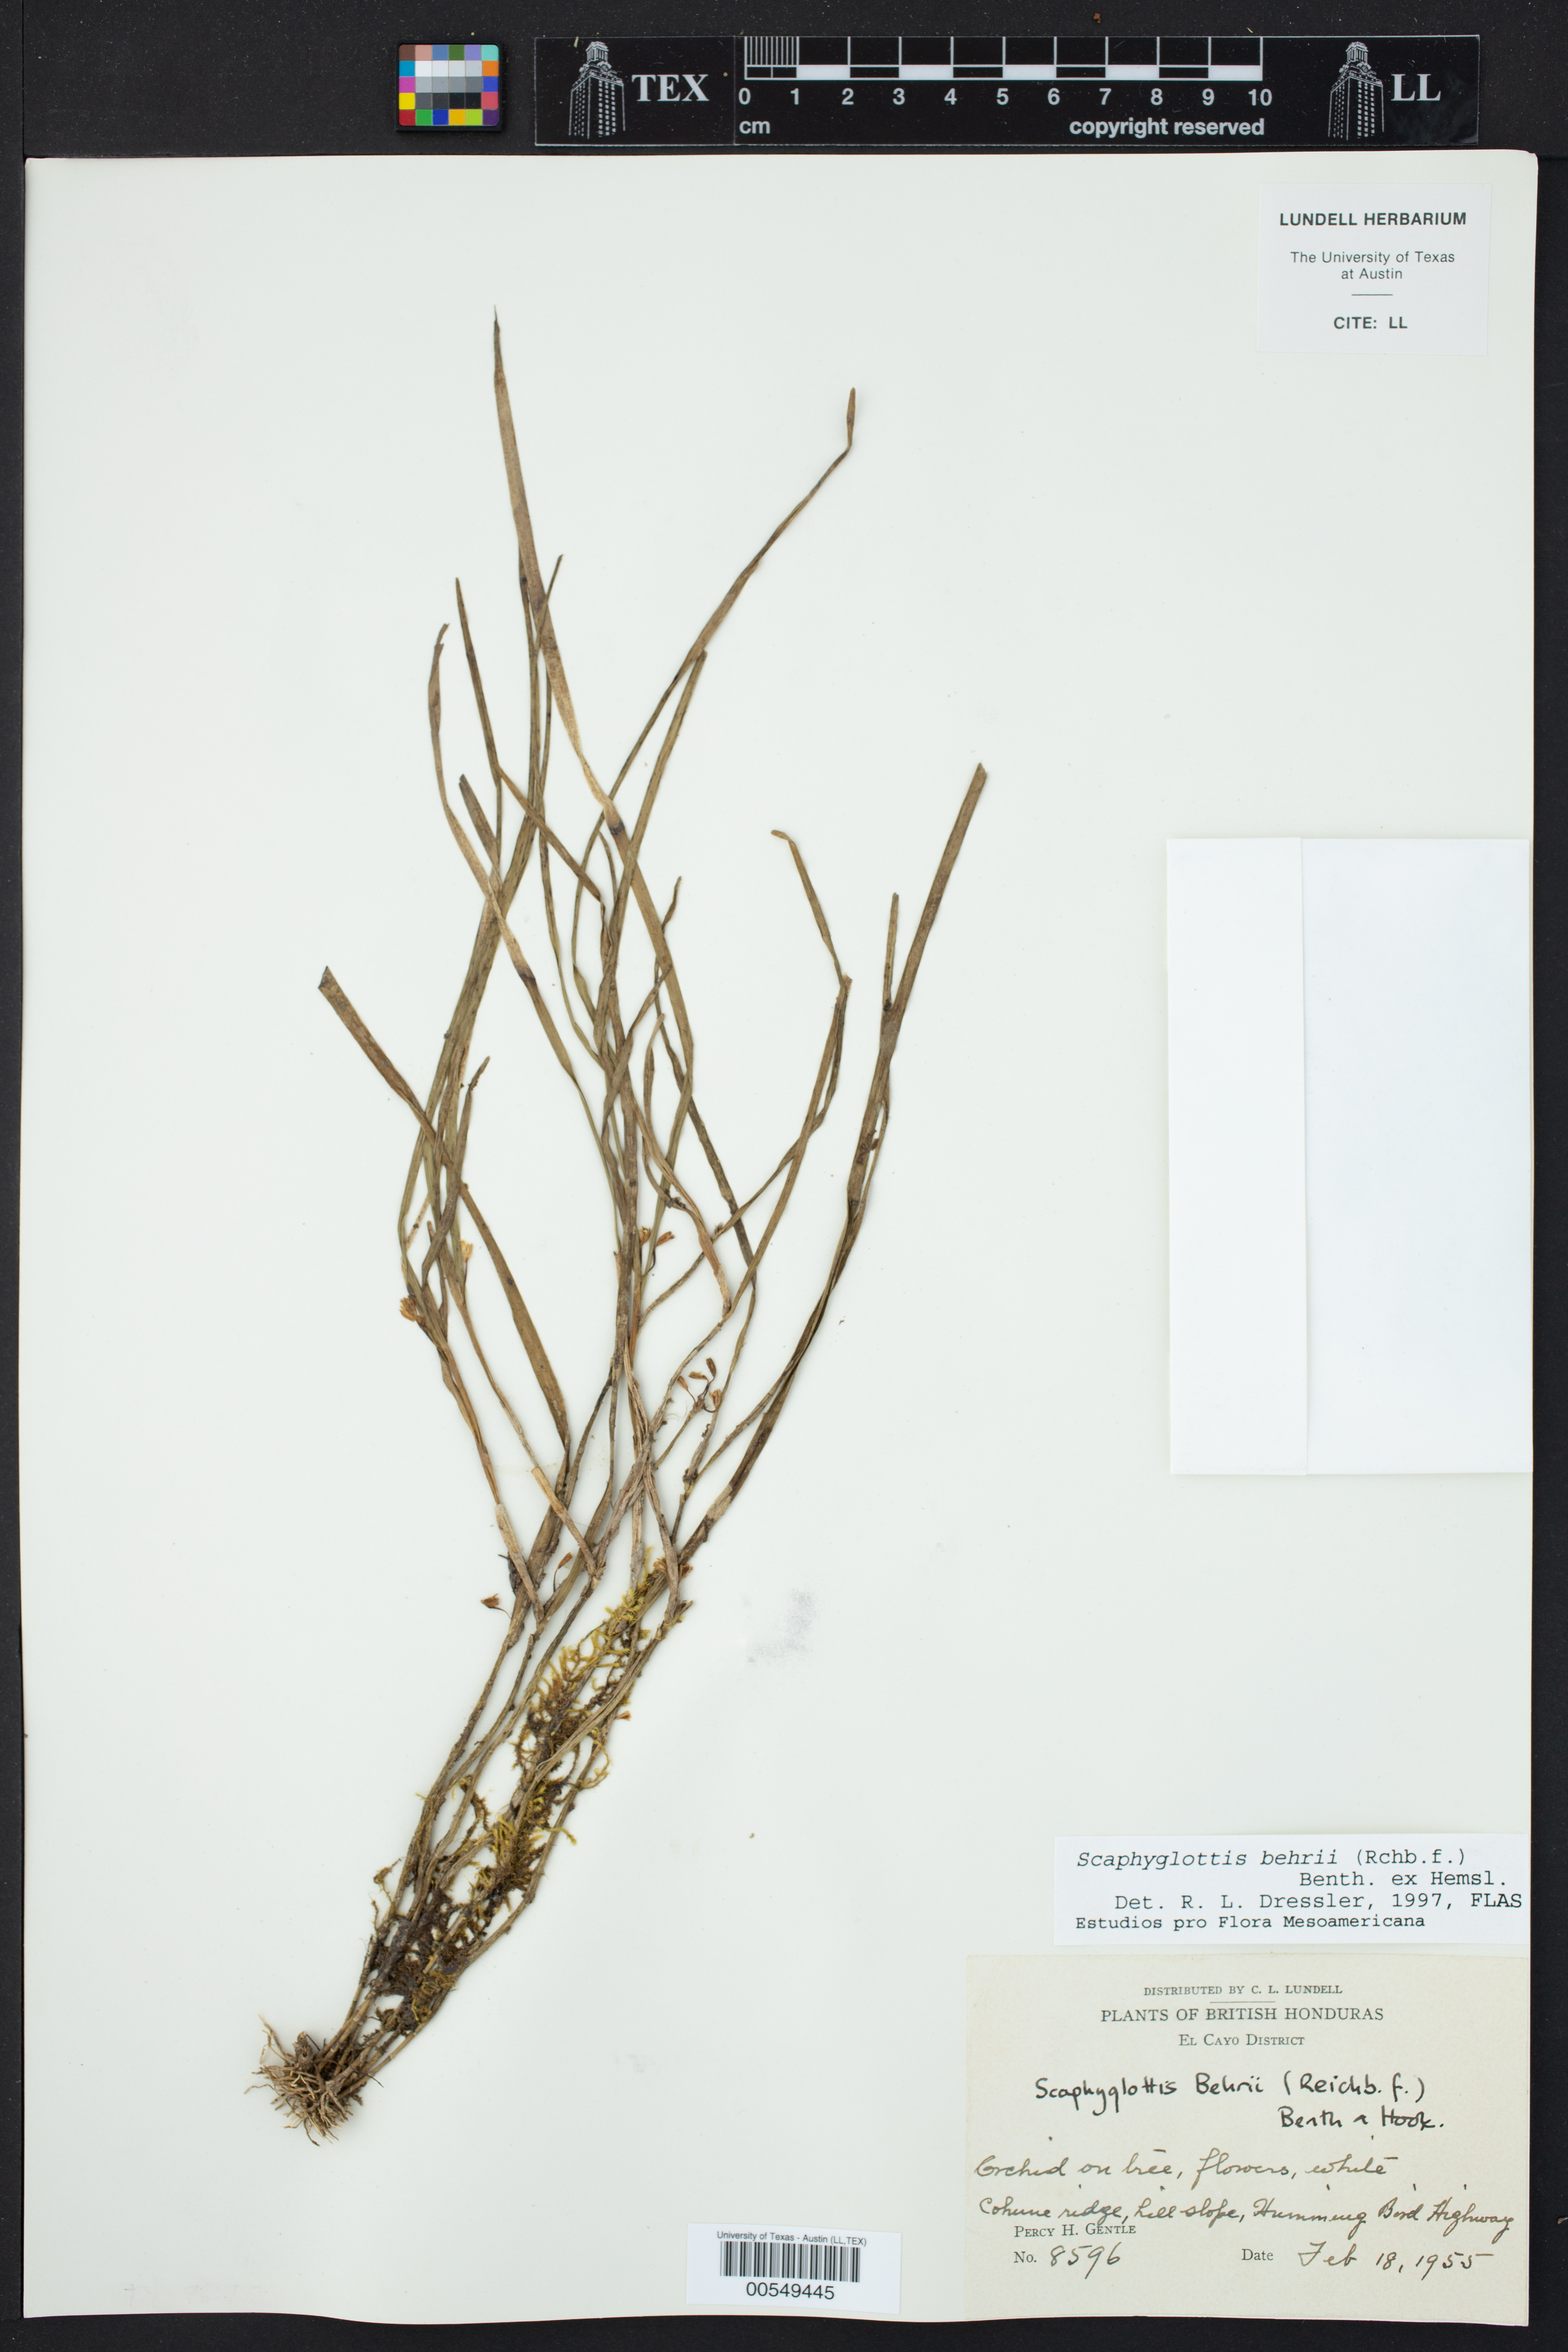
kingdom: Plantae
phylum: Tracheophyta
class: Liliopsida
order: Asparagales
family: Orchidaceae
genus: Scaphyglottis
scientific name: Scaphyglottis behrii
